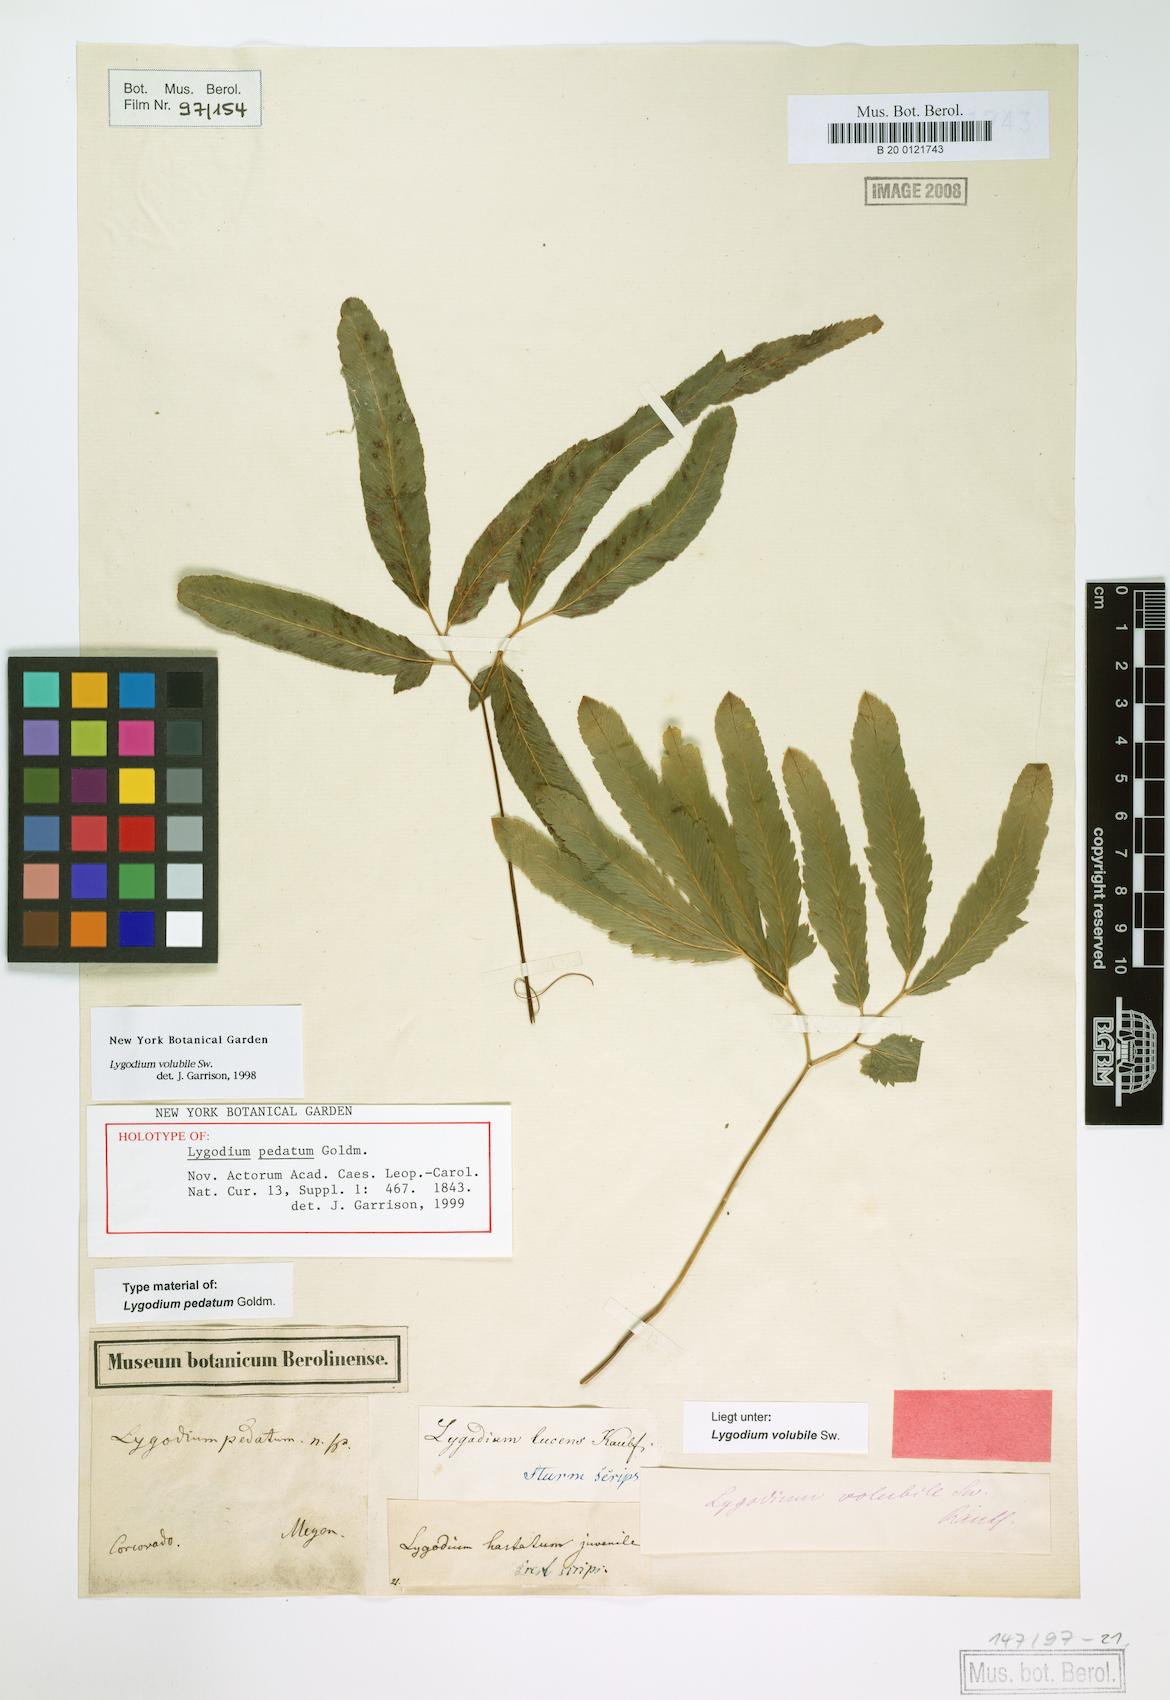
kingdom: Plantae
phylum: Tracheophyta
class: Polypodiopsida
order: Schizaeales
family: Lygodiaceae
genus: Lygodium
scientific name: Lygodium volubile
